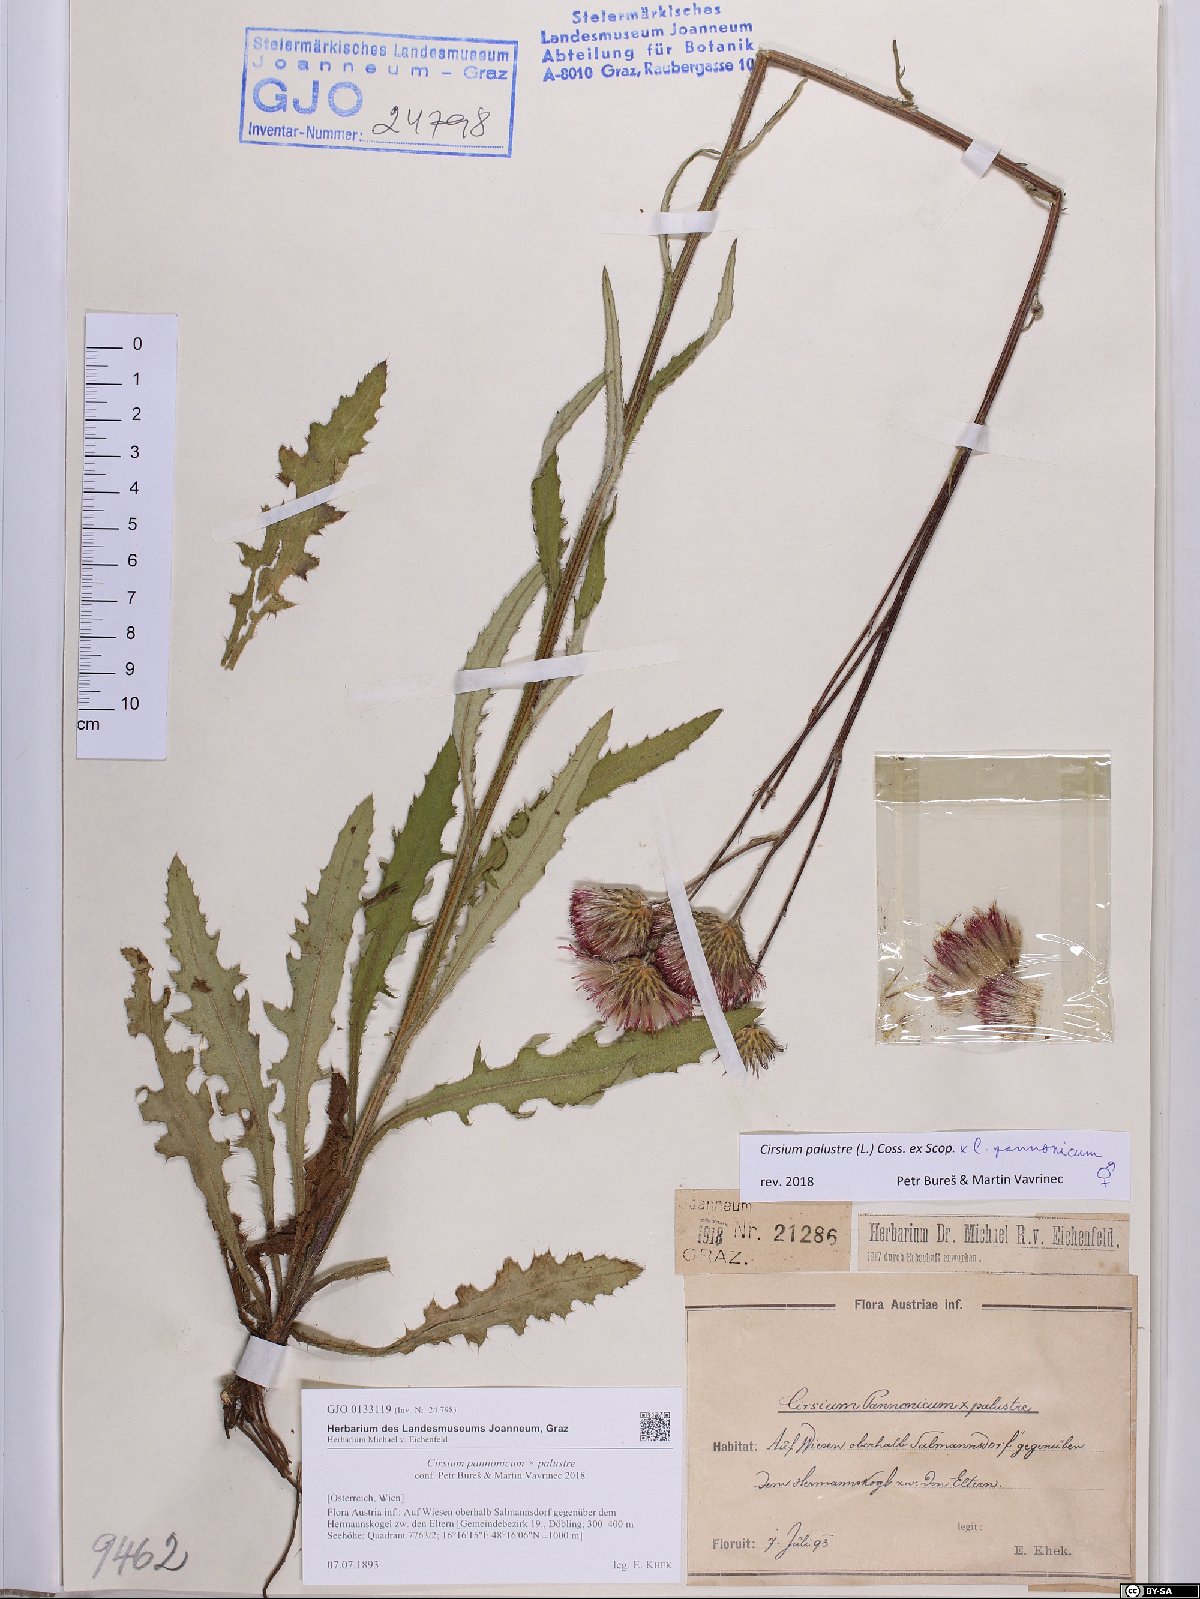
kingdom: Plantae
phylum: Tracheophyta
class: Magnoliopsida
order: Asterales
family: Asteraceae
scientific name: Asteraceae
